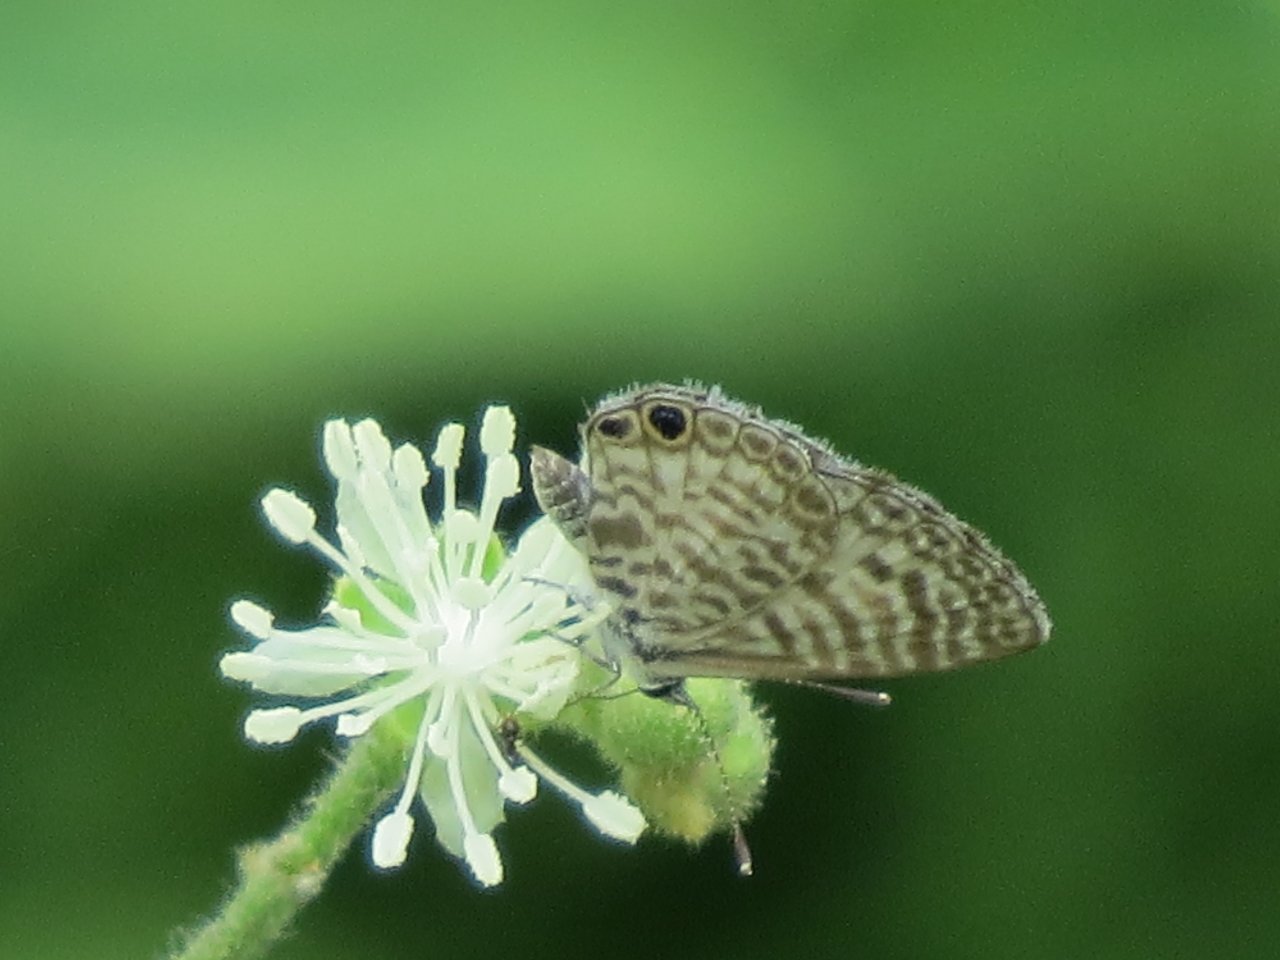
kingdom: Animalia
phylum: Arthropoda
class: Insecta
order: Lepidoptera
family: Lycaenidae
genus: Leptotes
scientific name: Leptotes cassius
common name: Cassius Blue
